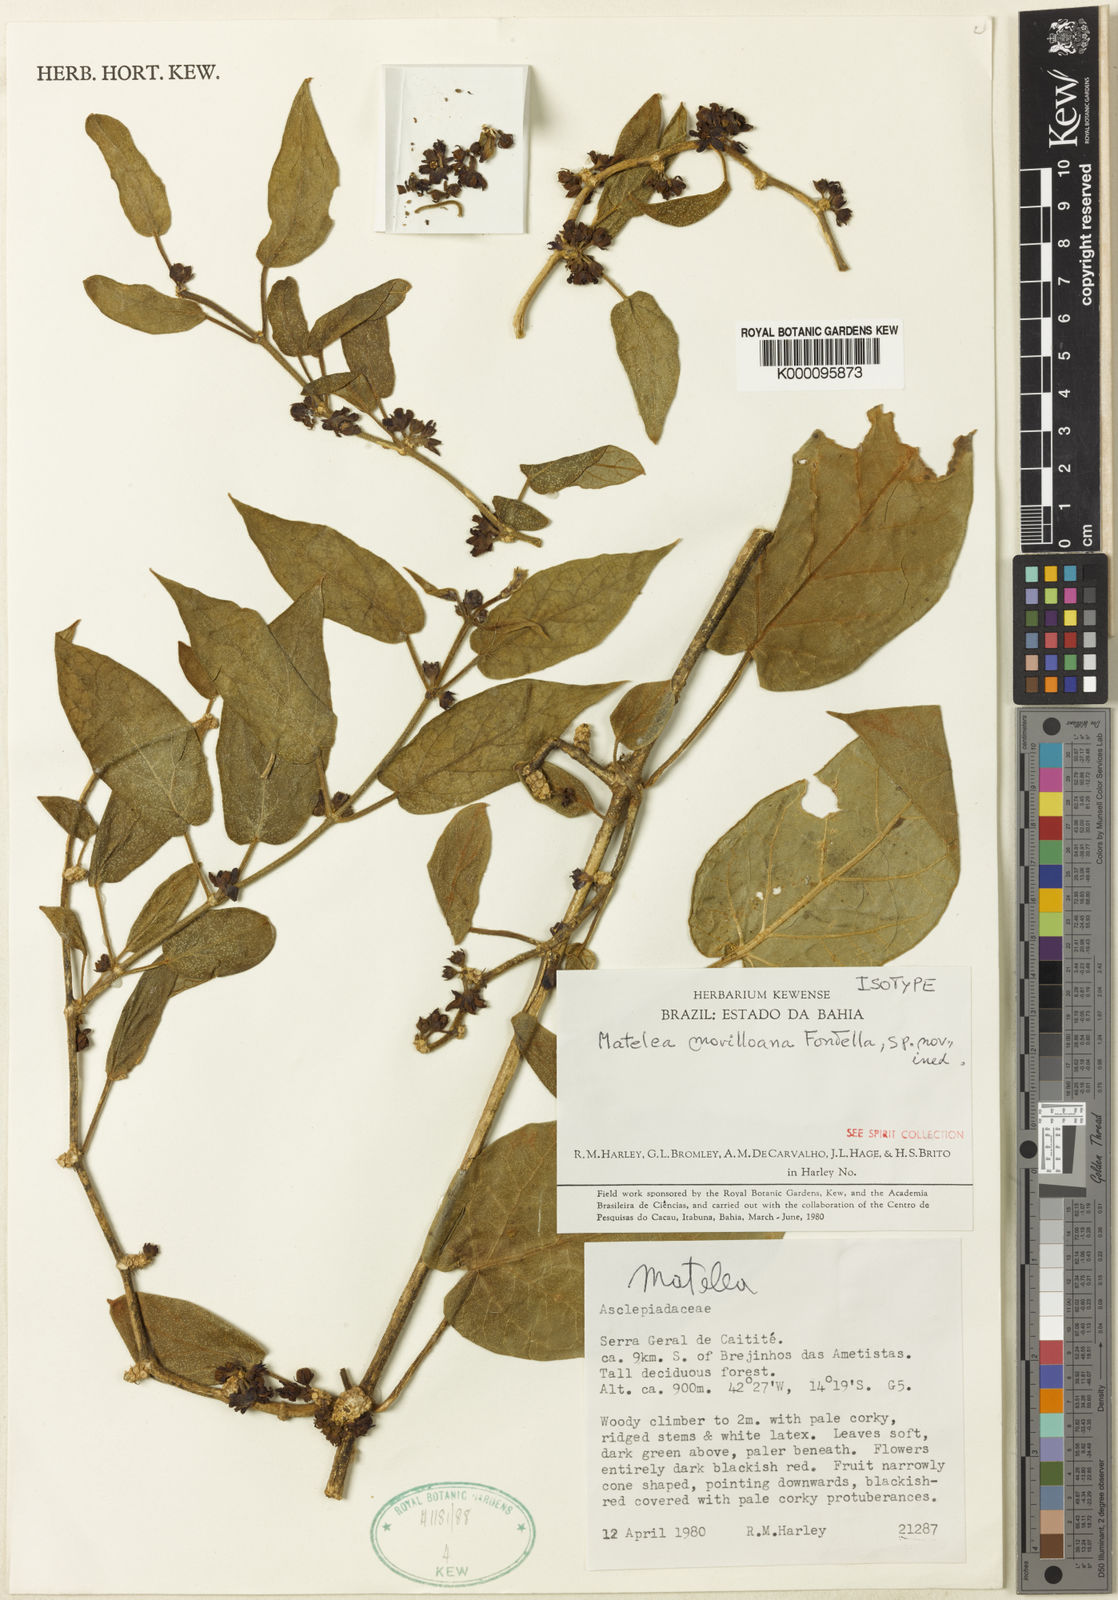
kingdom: Plantae
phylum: Tracheophyta
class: Magnoliopsida
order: Gentianales
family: Apocynaceae
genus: Ibatia
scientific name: Ibatia morilloana
